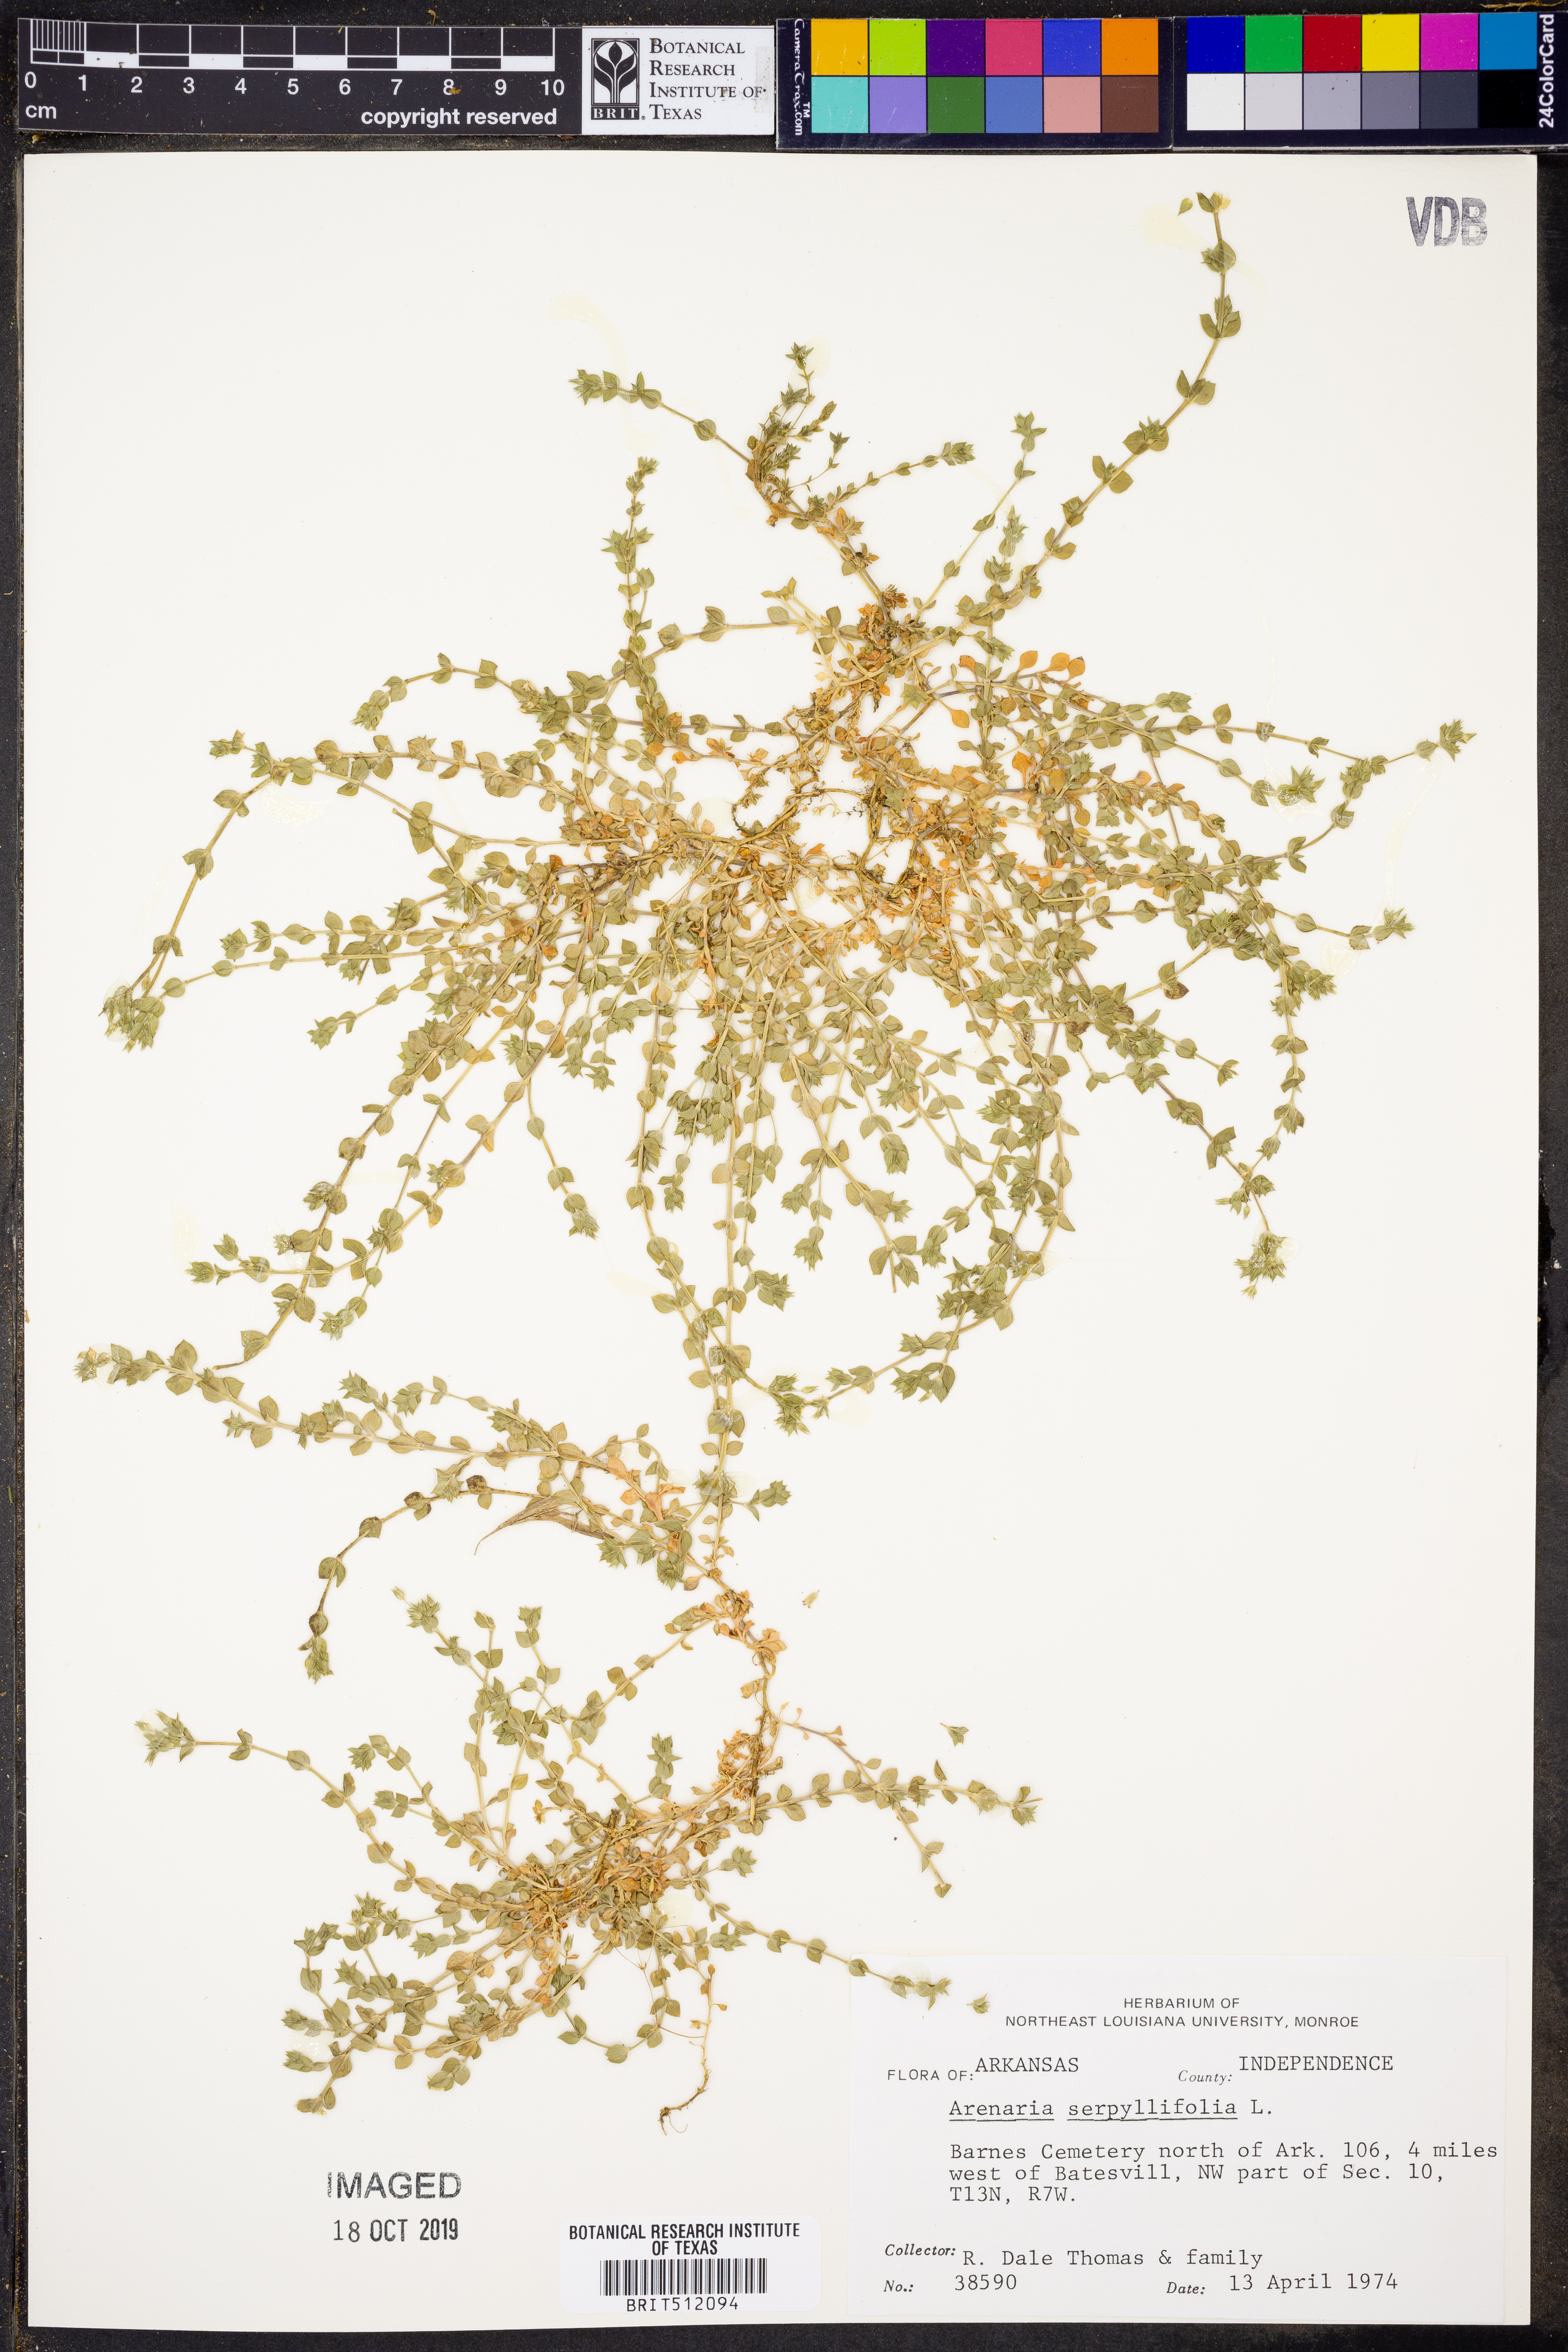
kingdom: Plantae
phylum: Tracheophyta
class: Magnoliopsida
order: Caryophyllales
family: Caryophyllaceae
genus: Arenaria
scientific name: Arenaria serpyllifolia
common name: Thyme-leaved sandwort
